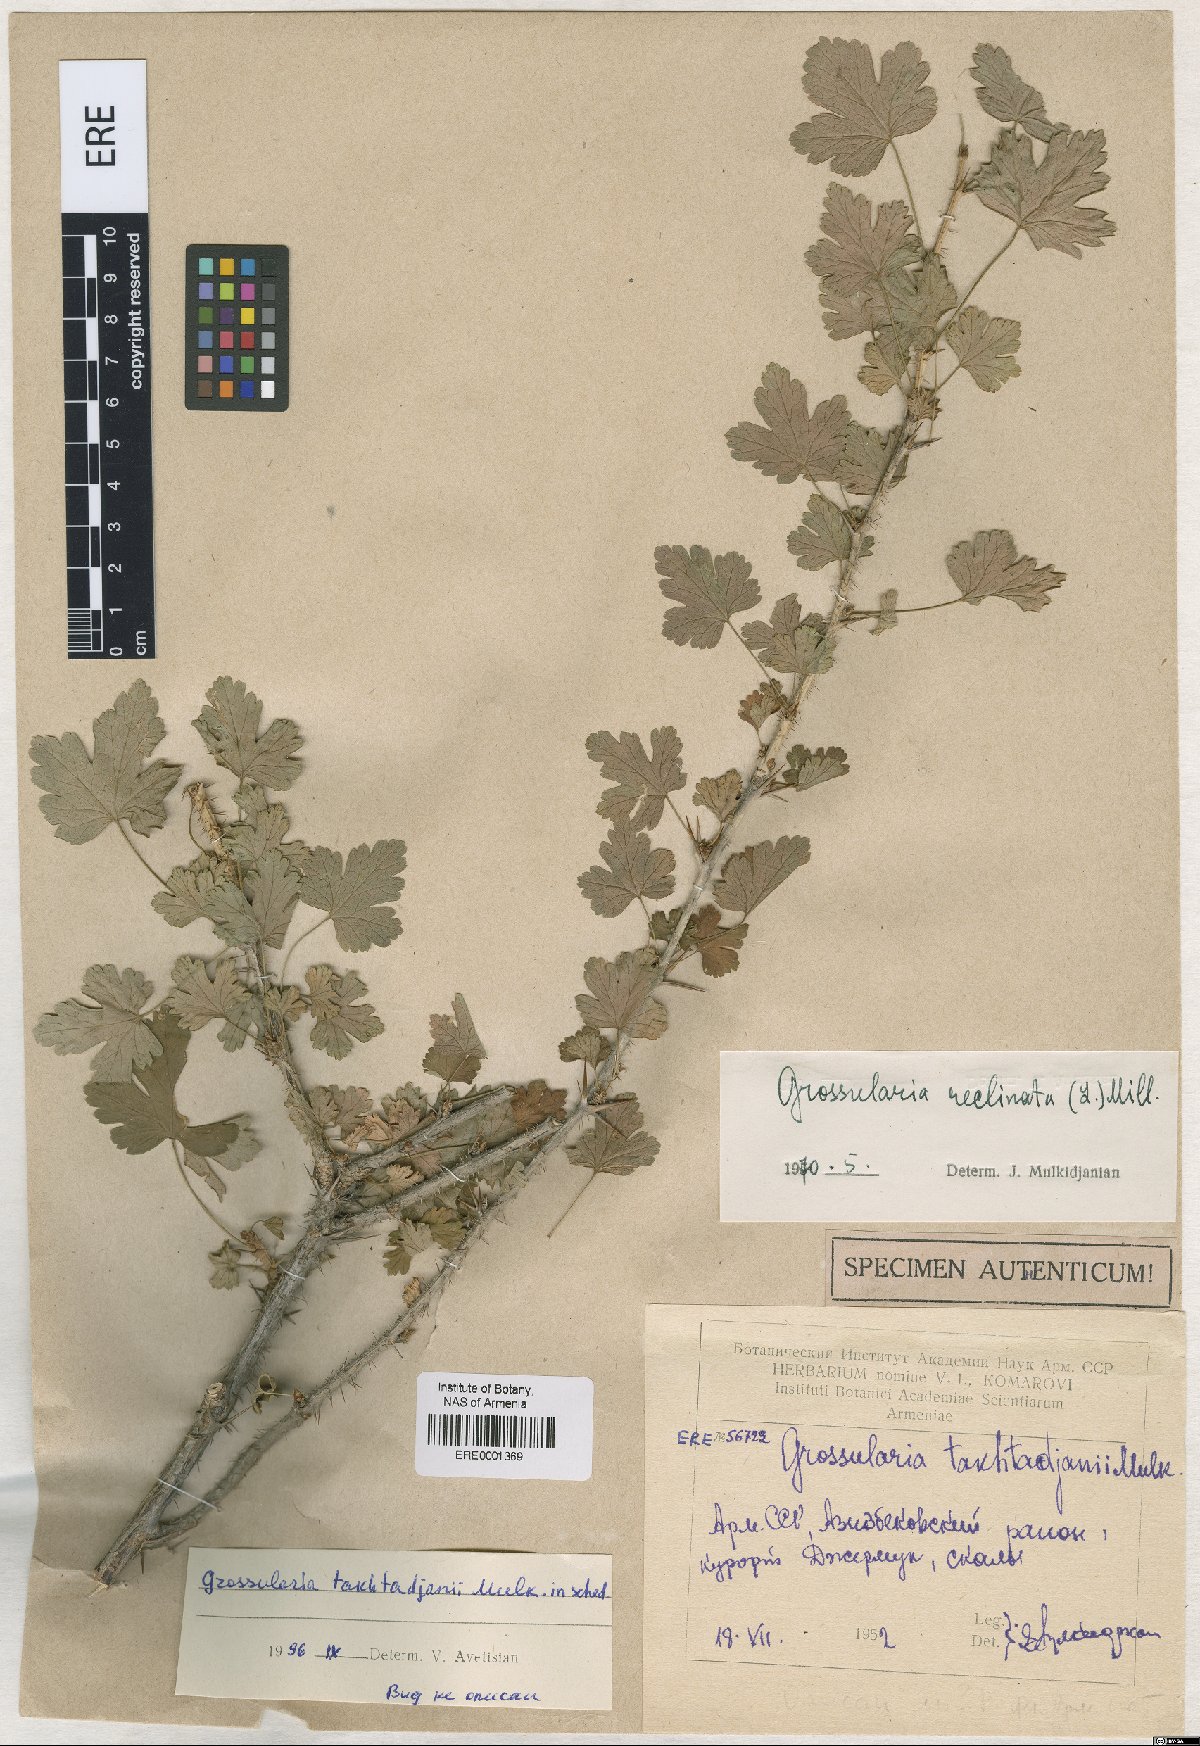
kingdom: Plantae
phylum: Tracheophyta
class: Magnoliopsida
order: Saxifragales
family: Grossulariaceae
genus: Grossularia
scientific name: Grossularia
